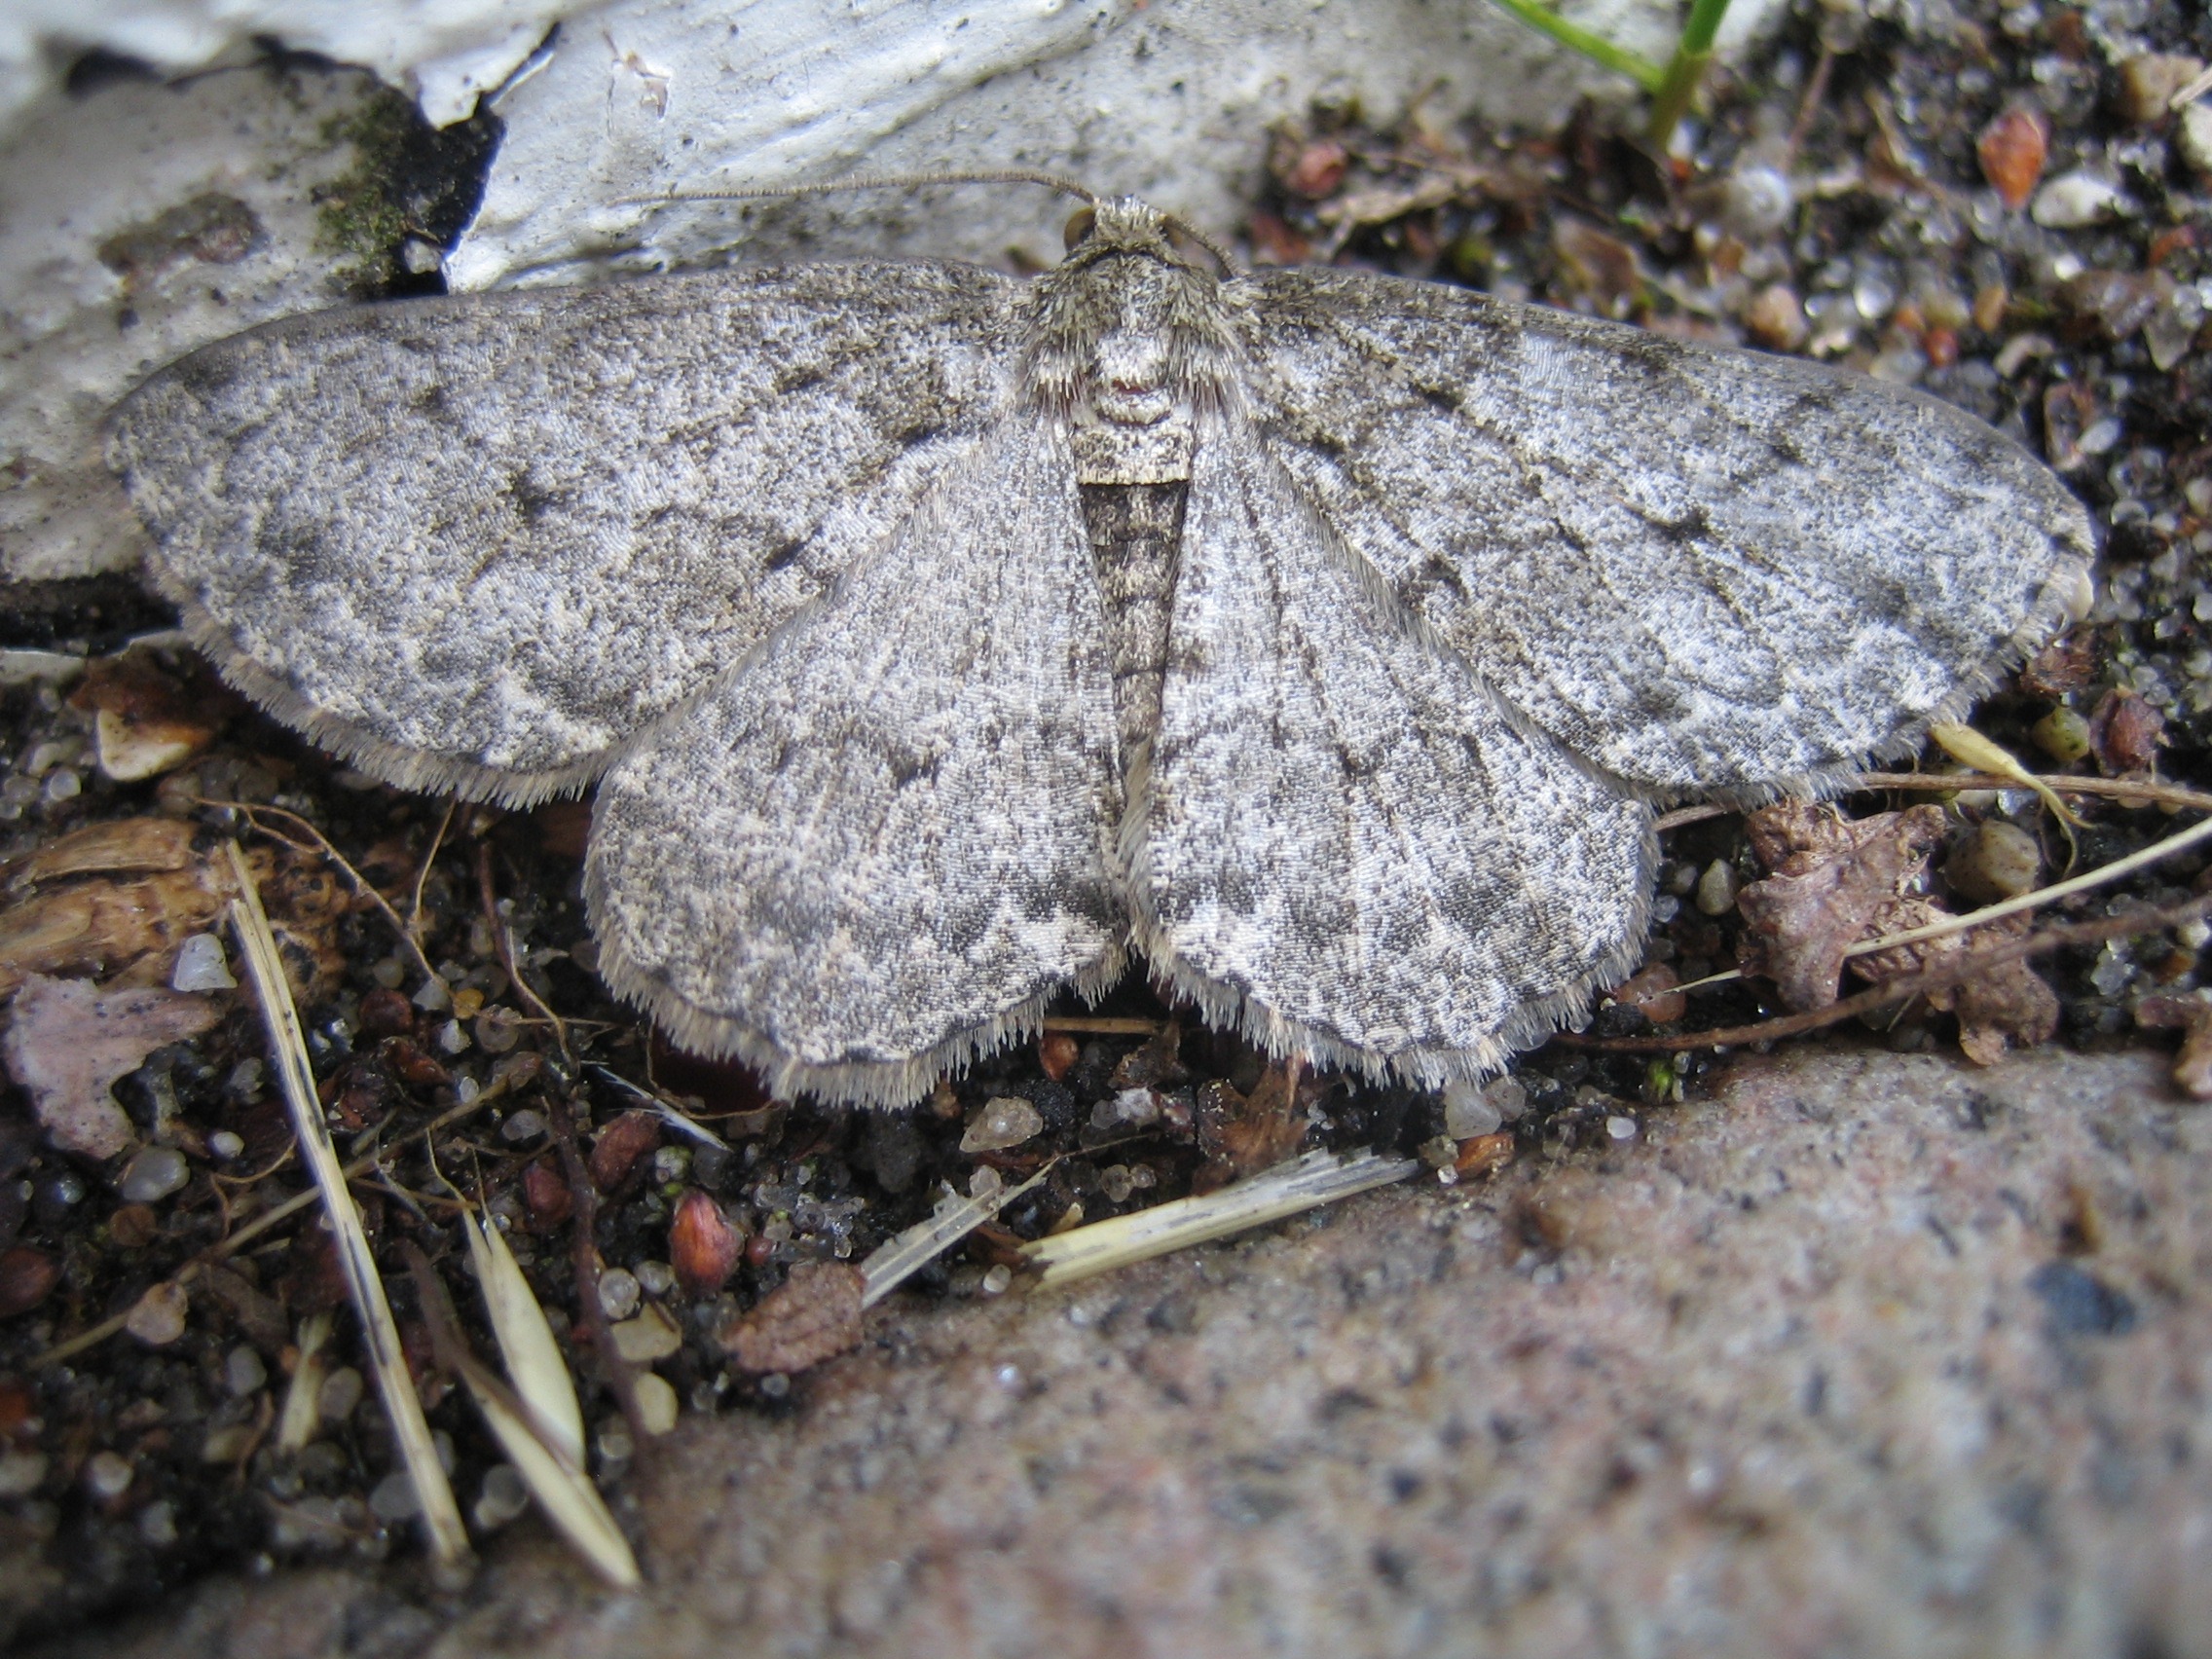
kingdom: Animalia
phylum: Arthropoda
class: Insecta
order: Lepidoptera
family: Geometridae
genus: Ectropis
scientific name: Ectropis crepuscularia
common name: Birke-barkmåler
